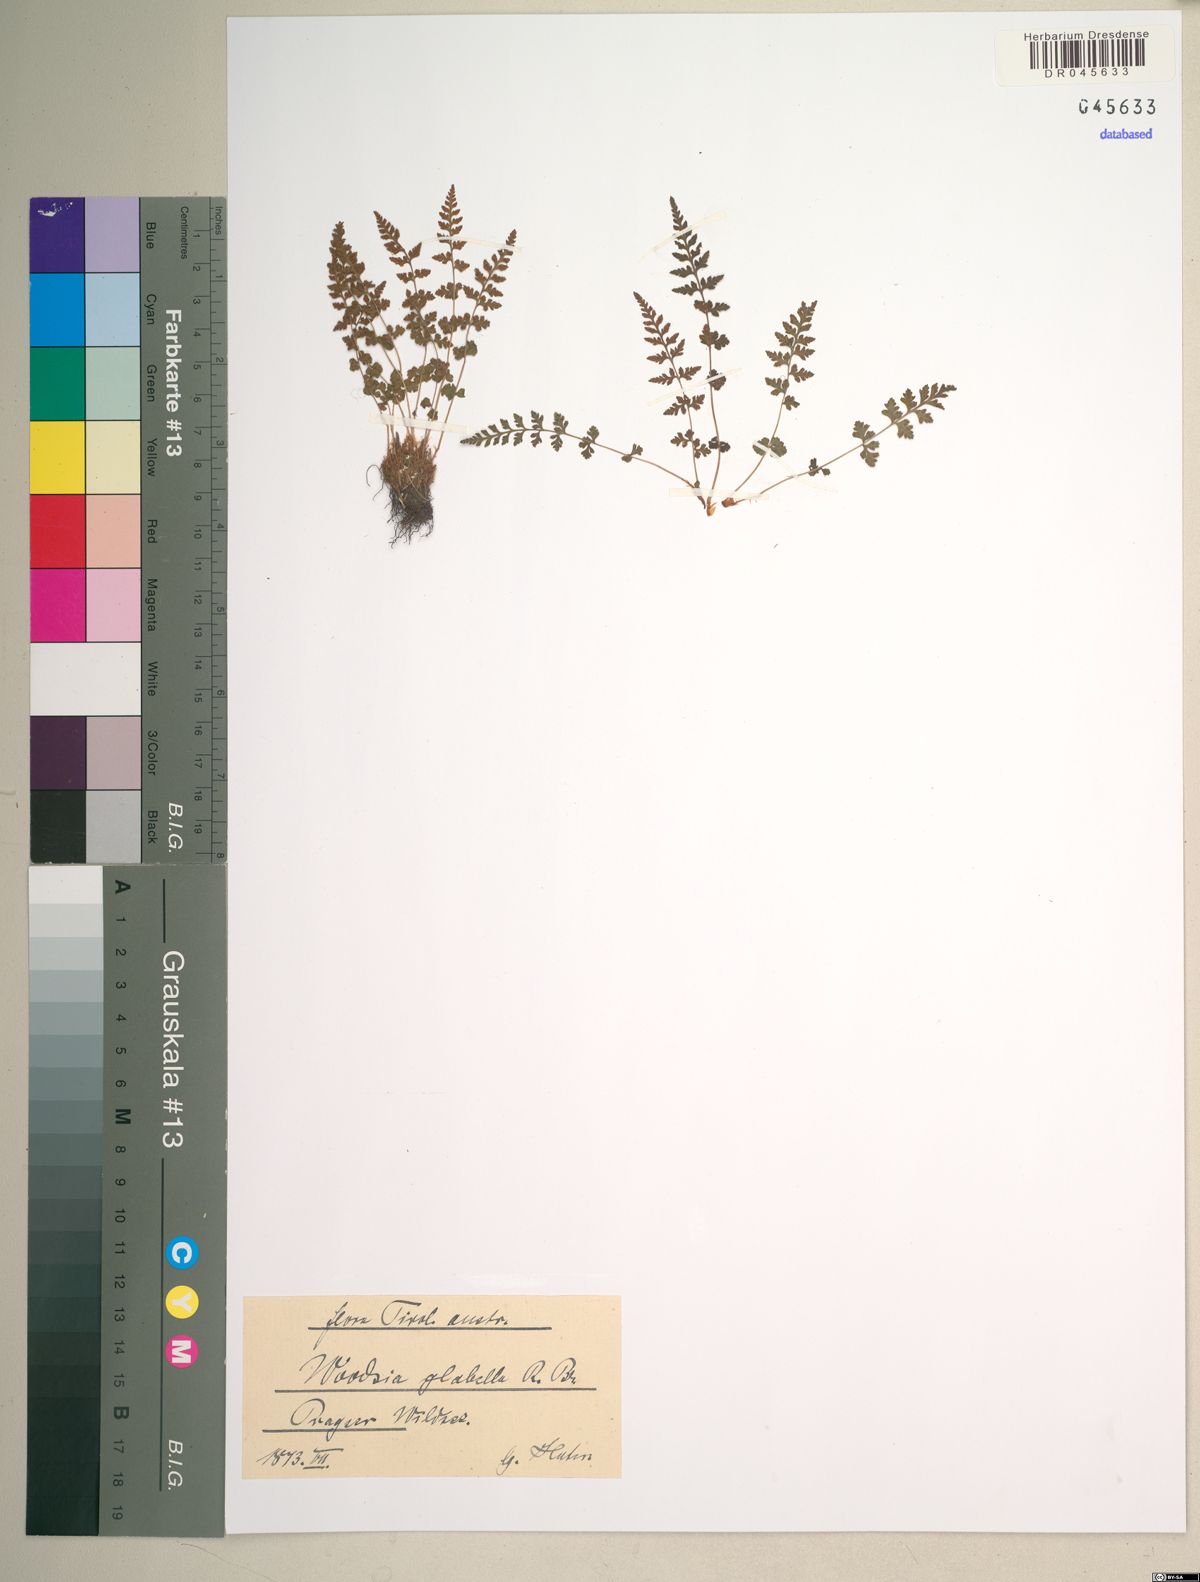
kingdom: Plantae
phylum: Tracheophyta
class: Polypodiopsida
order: Polypodiales
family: Woodsiaceae
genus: Woodsia
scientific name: Woodsia glabella
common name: Smooth woodsia
